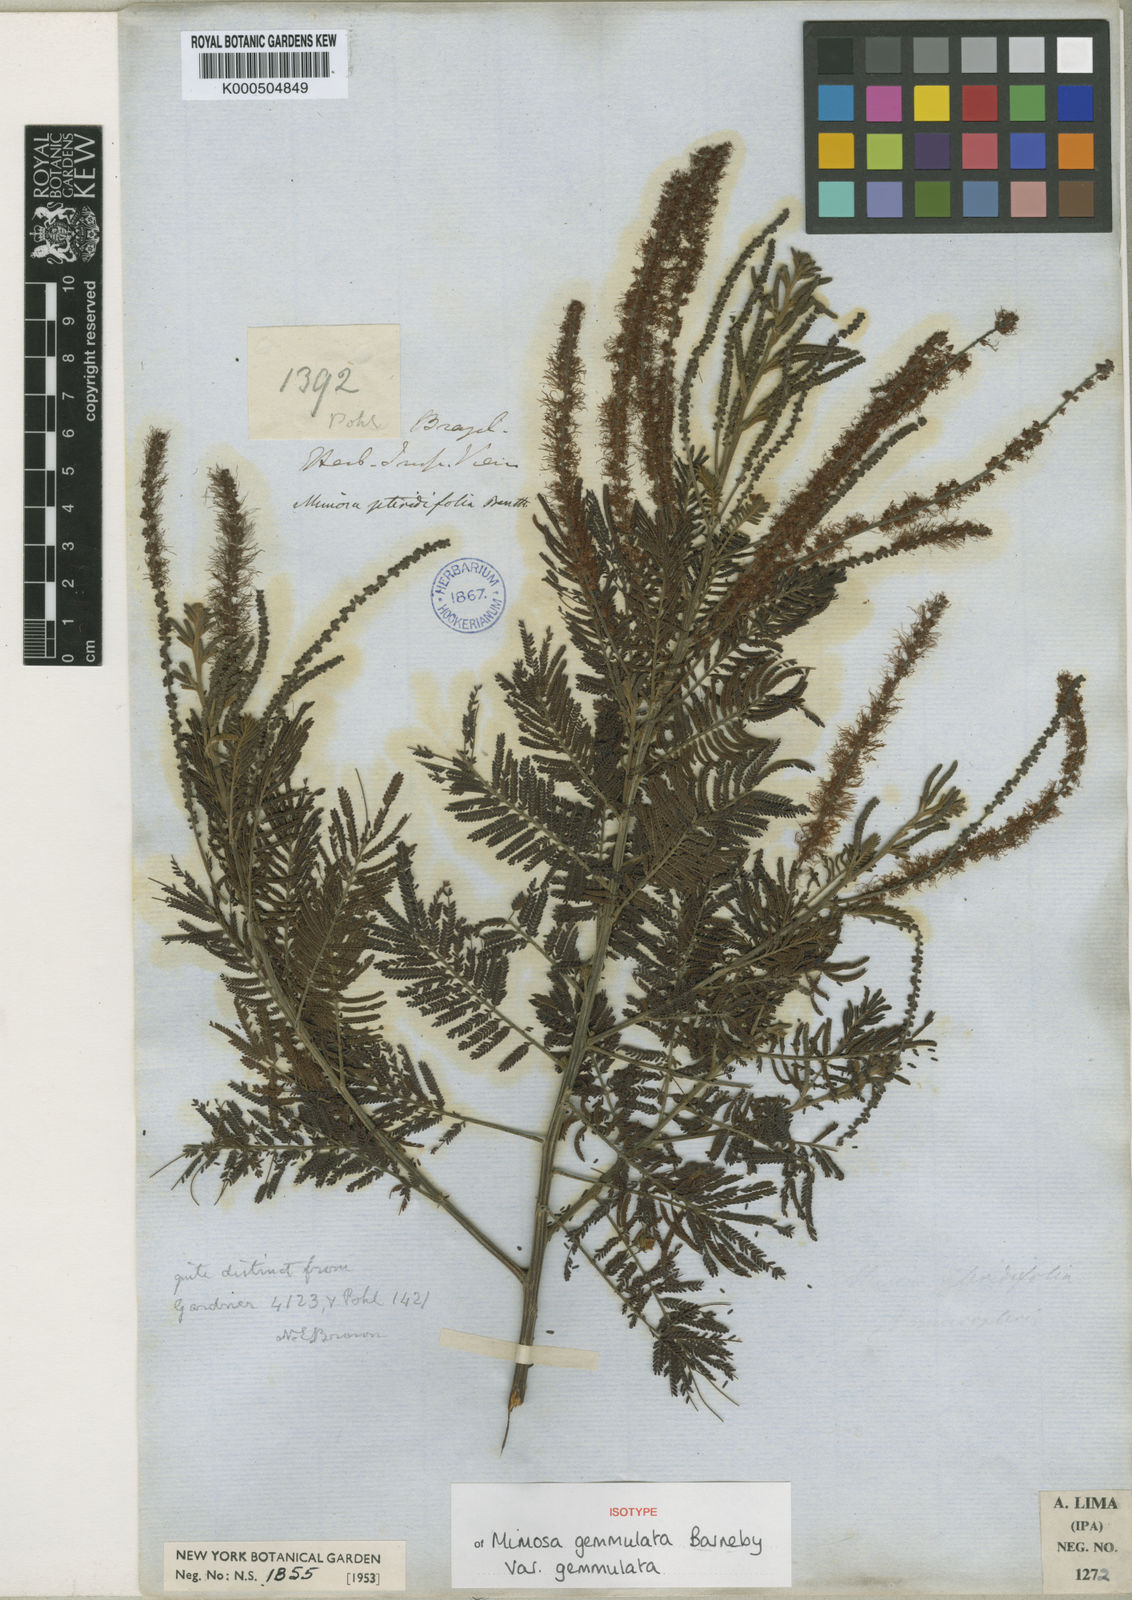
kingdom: Plantae
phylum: Tracheophyta
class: Magnoliopsida
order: Fabales
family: Fabaceae
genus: Mimosa
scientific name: Mimosa gemmulata
